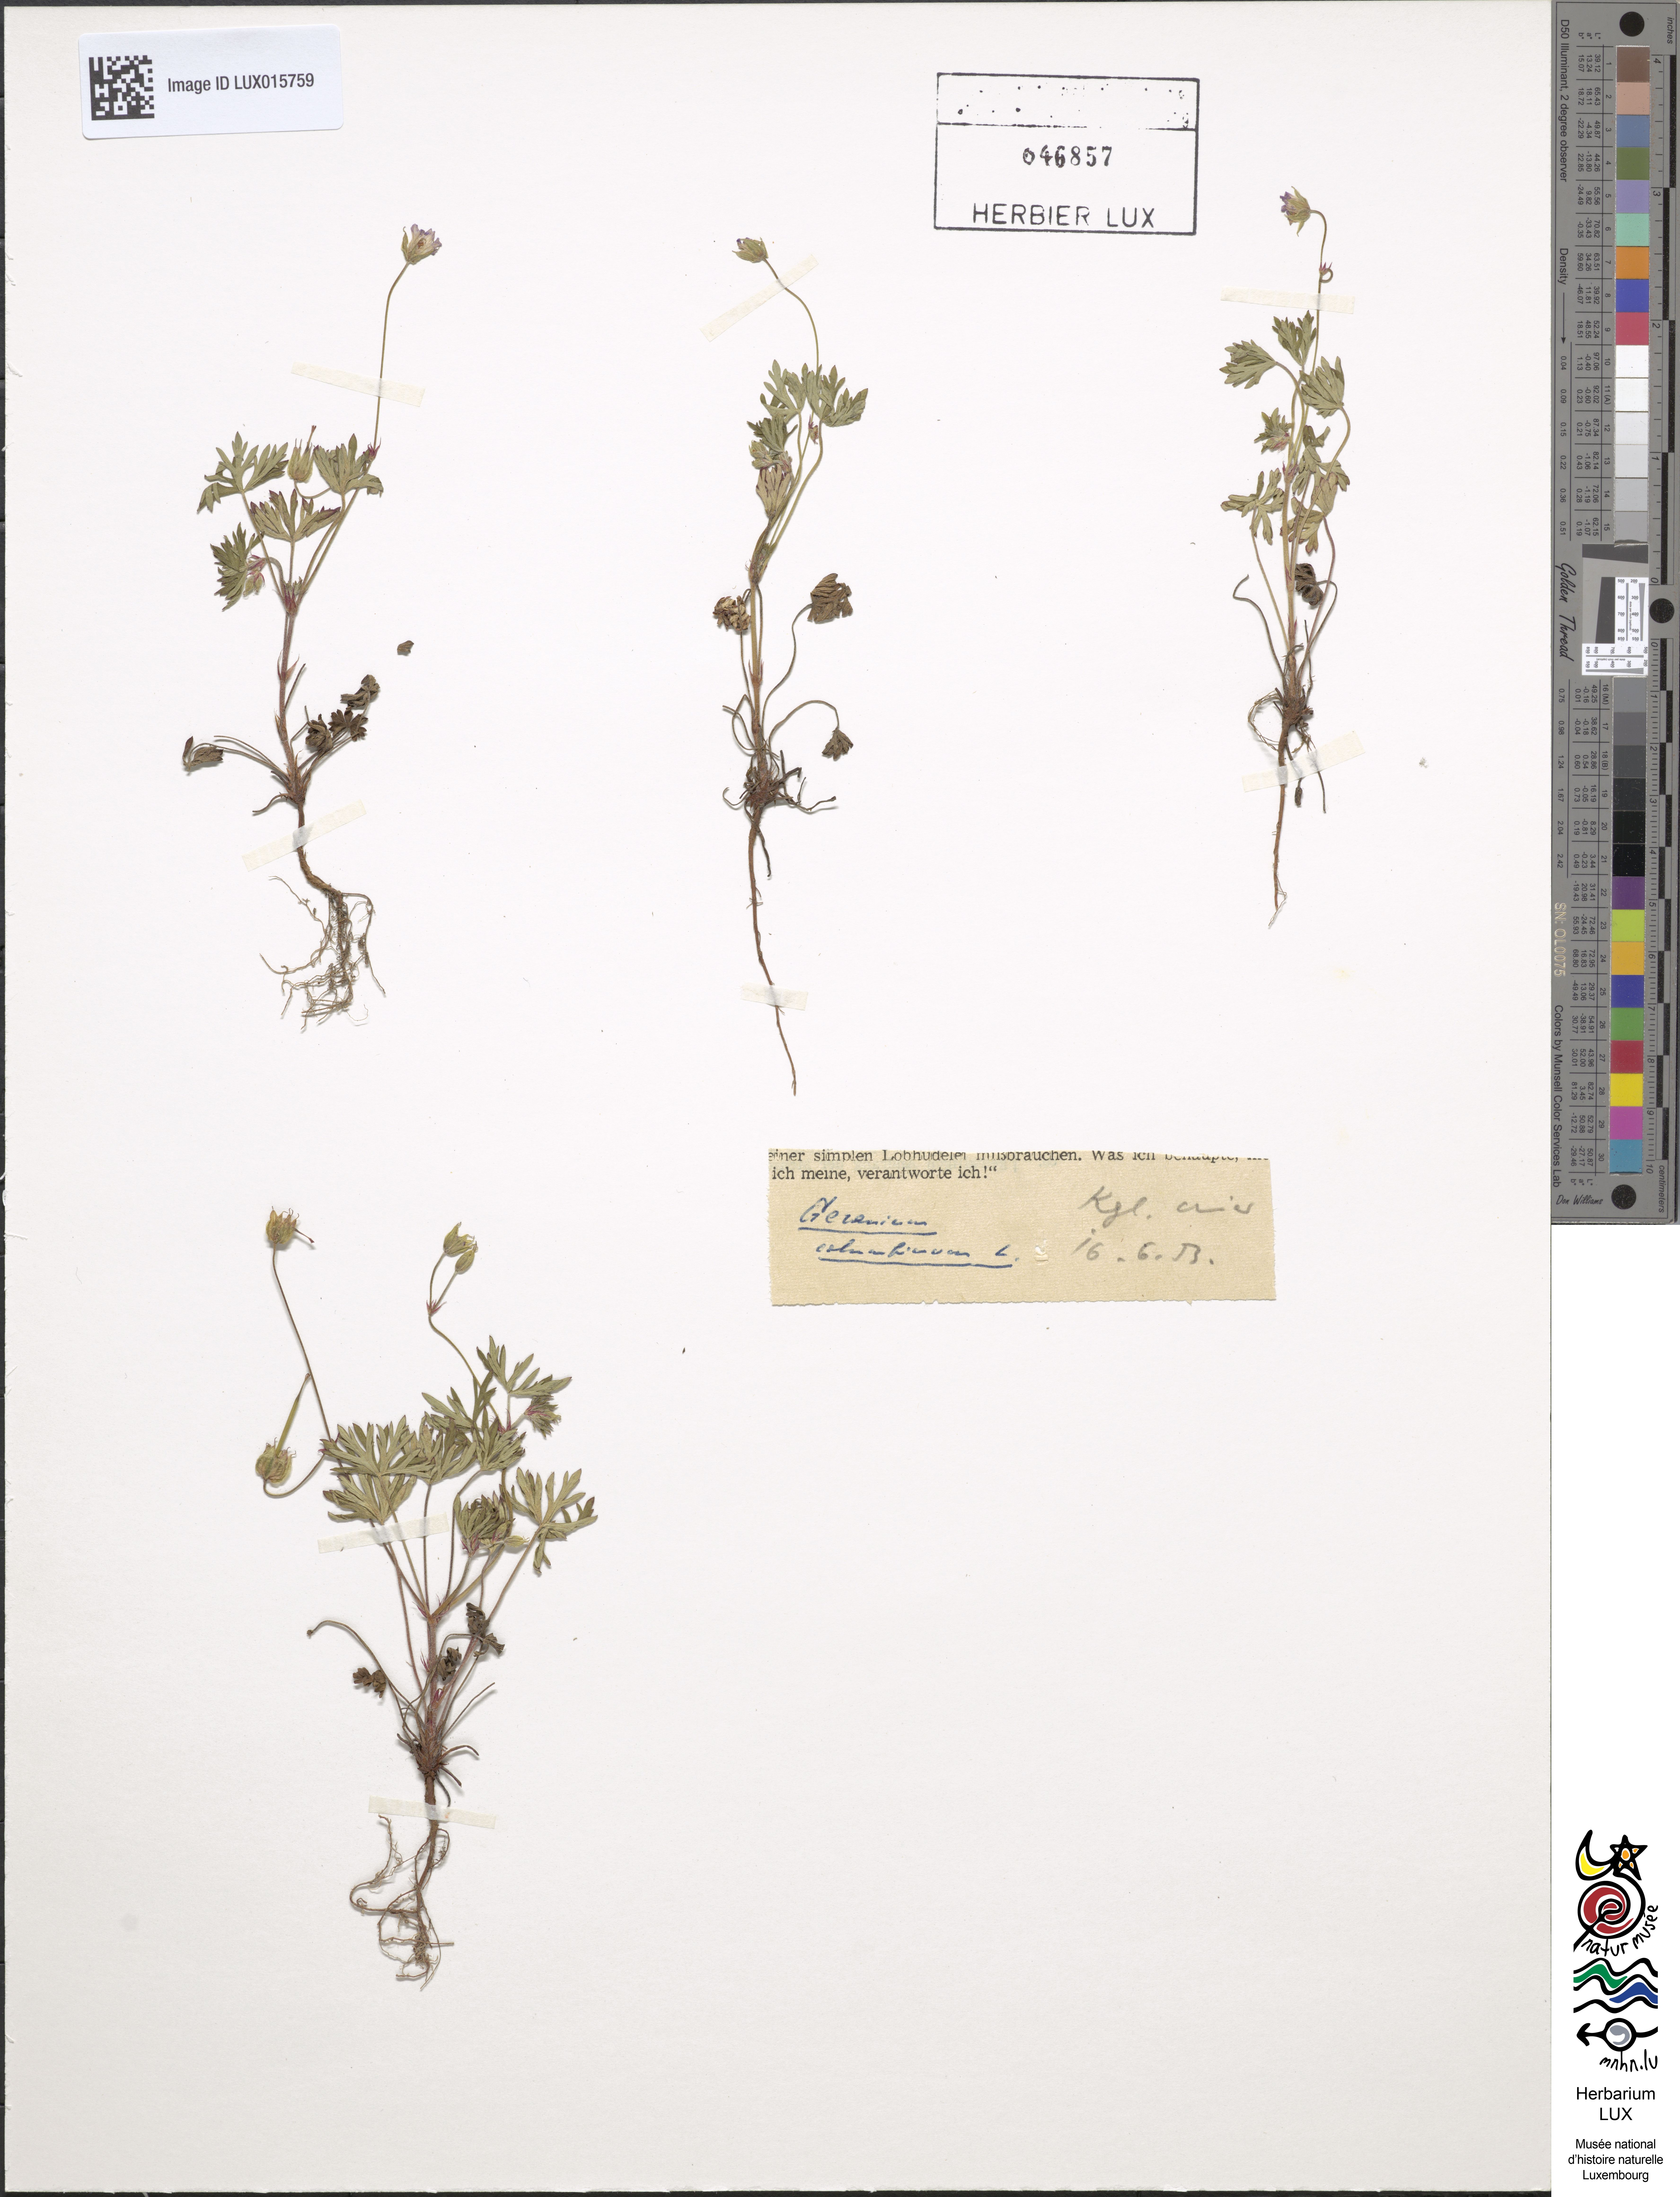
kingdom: Plantae
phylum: Tracheophyta
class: Magnoliopsida
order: Geraniales
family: Geraniaceae
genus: Geranium
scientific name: Geranium columbinum
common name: Long-stalked crane's-bill
